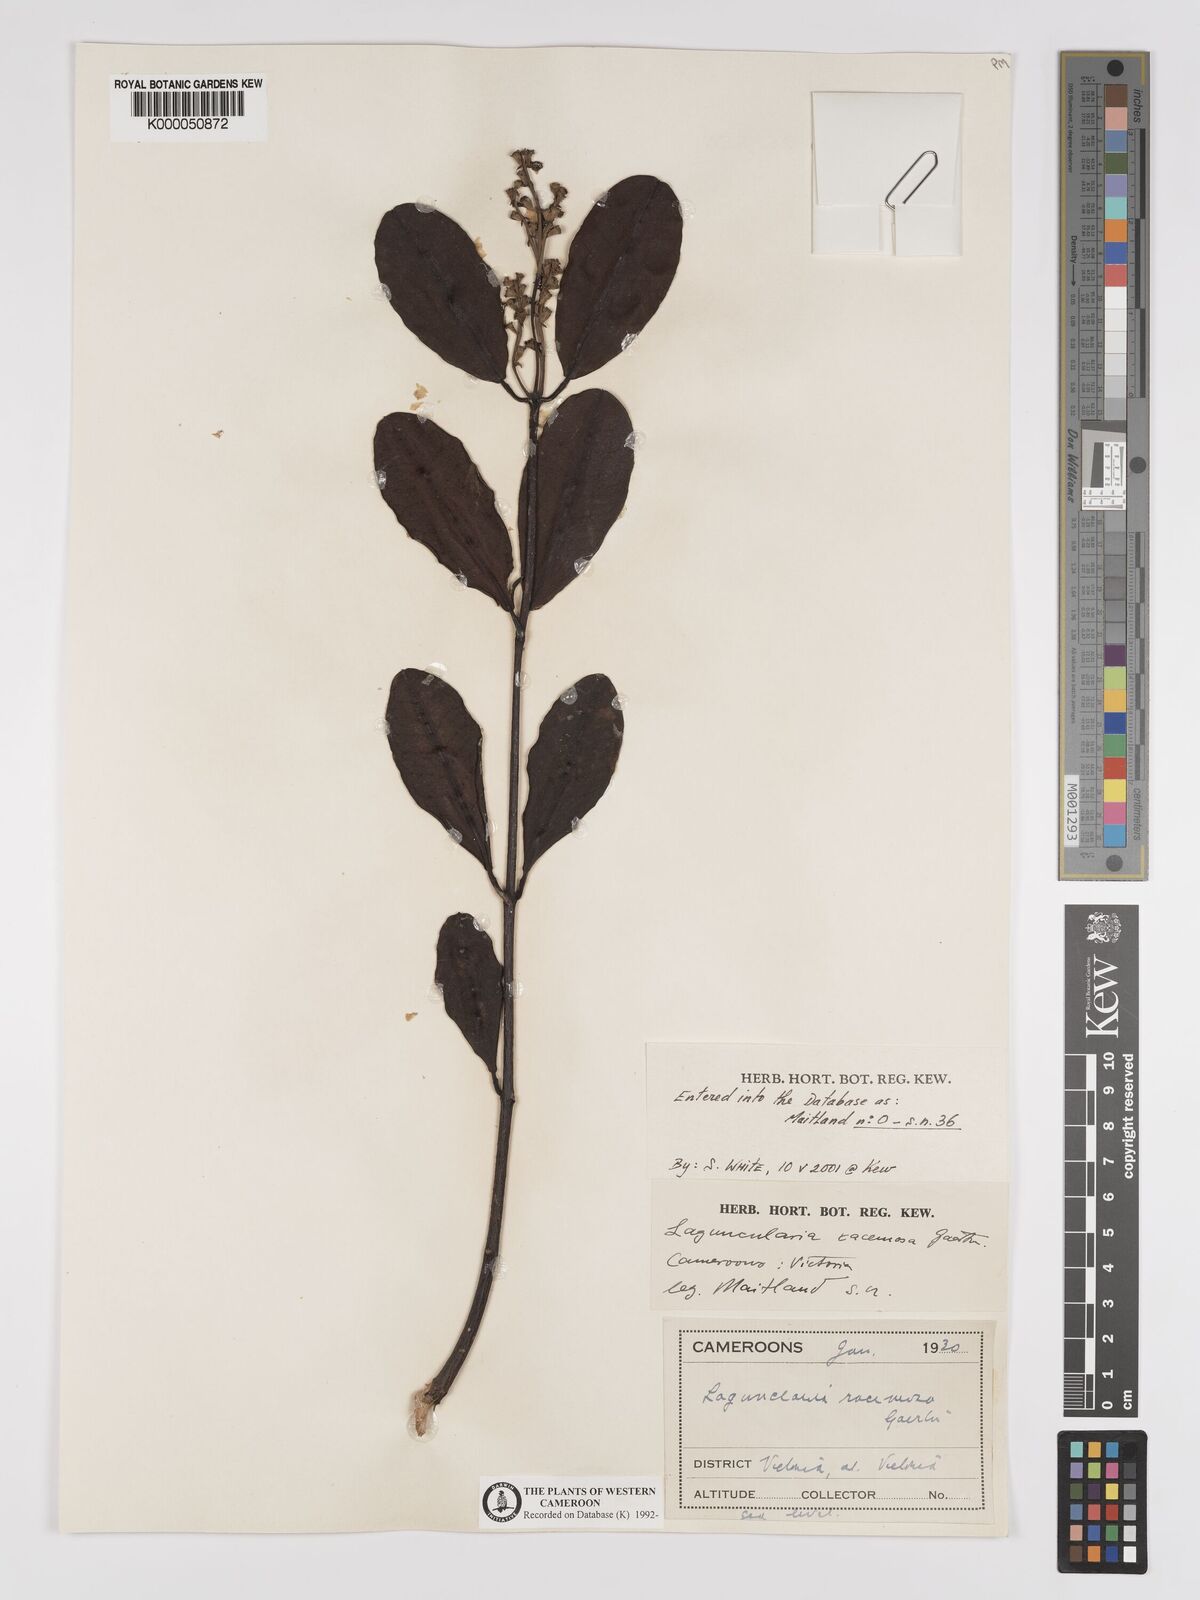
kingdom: Plantae
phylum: Tracheophyta
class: Magnoliopsida
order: Myrtales
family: Combretaceae
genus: Laguncularia
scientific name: Laguncularia racemosa
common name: White mangrove
